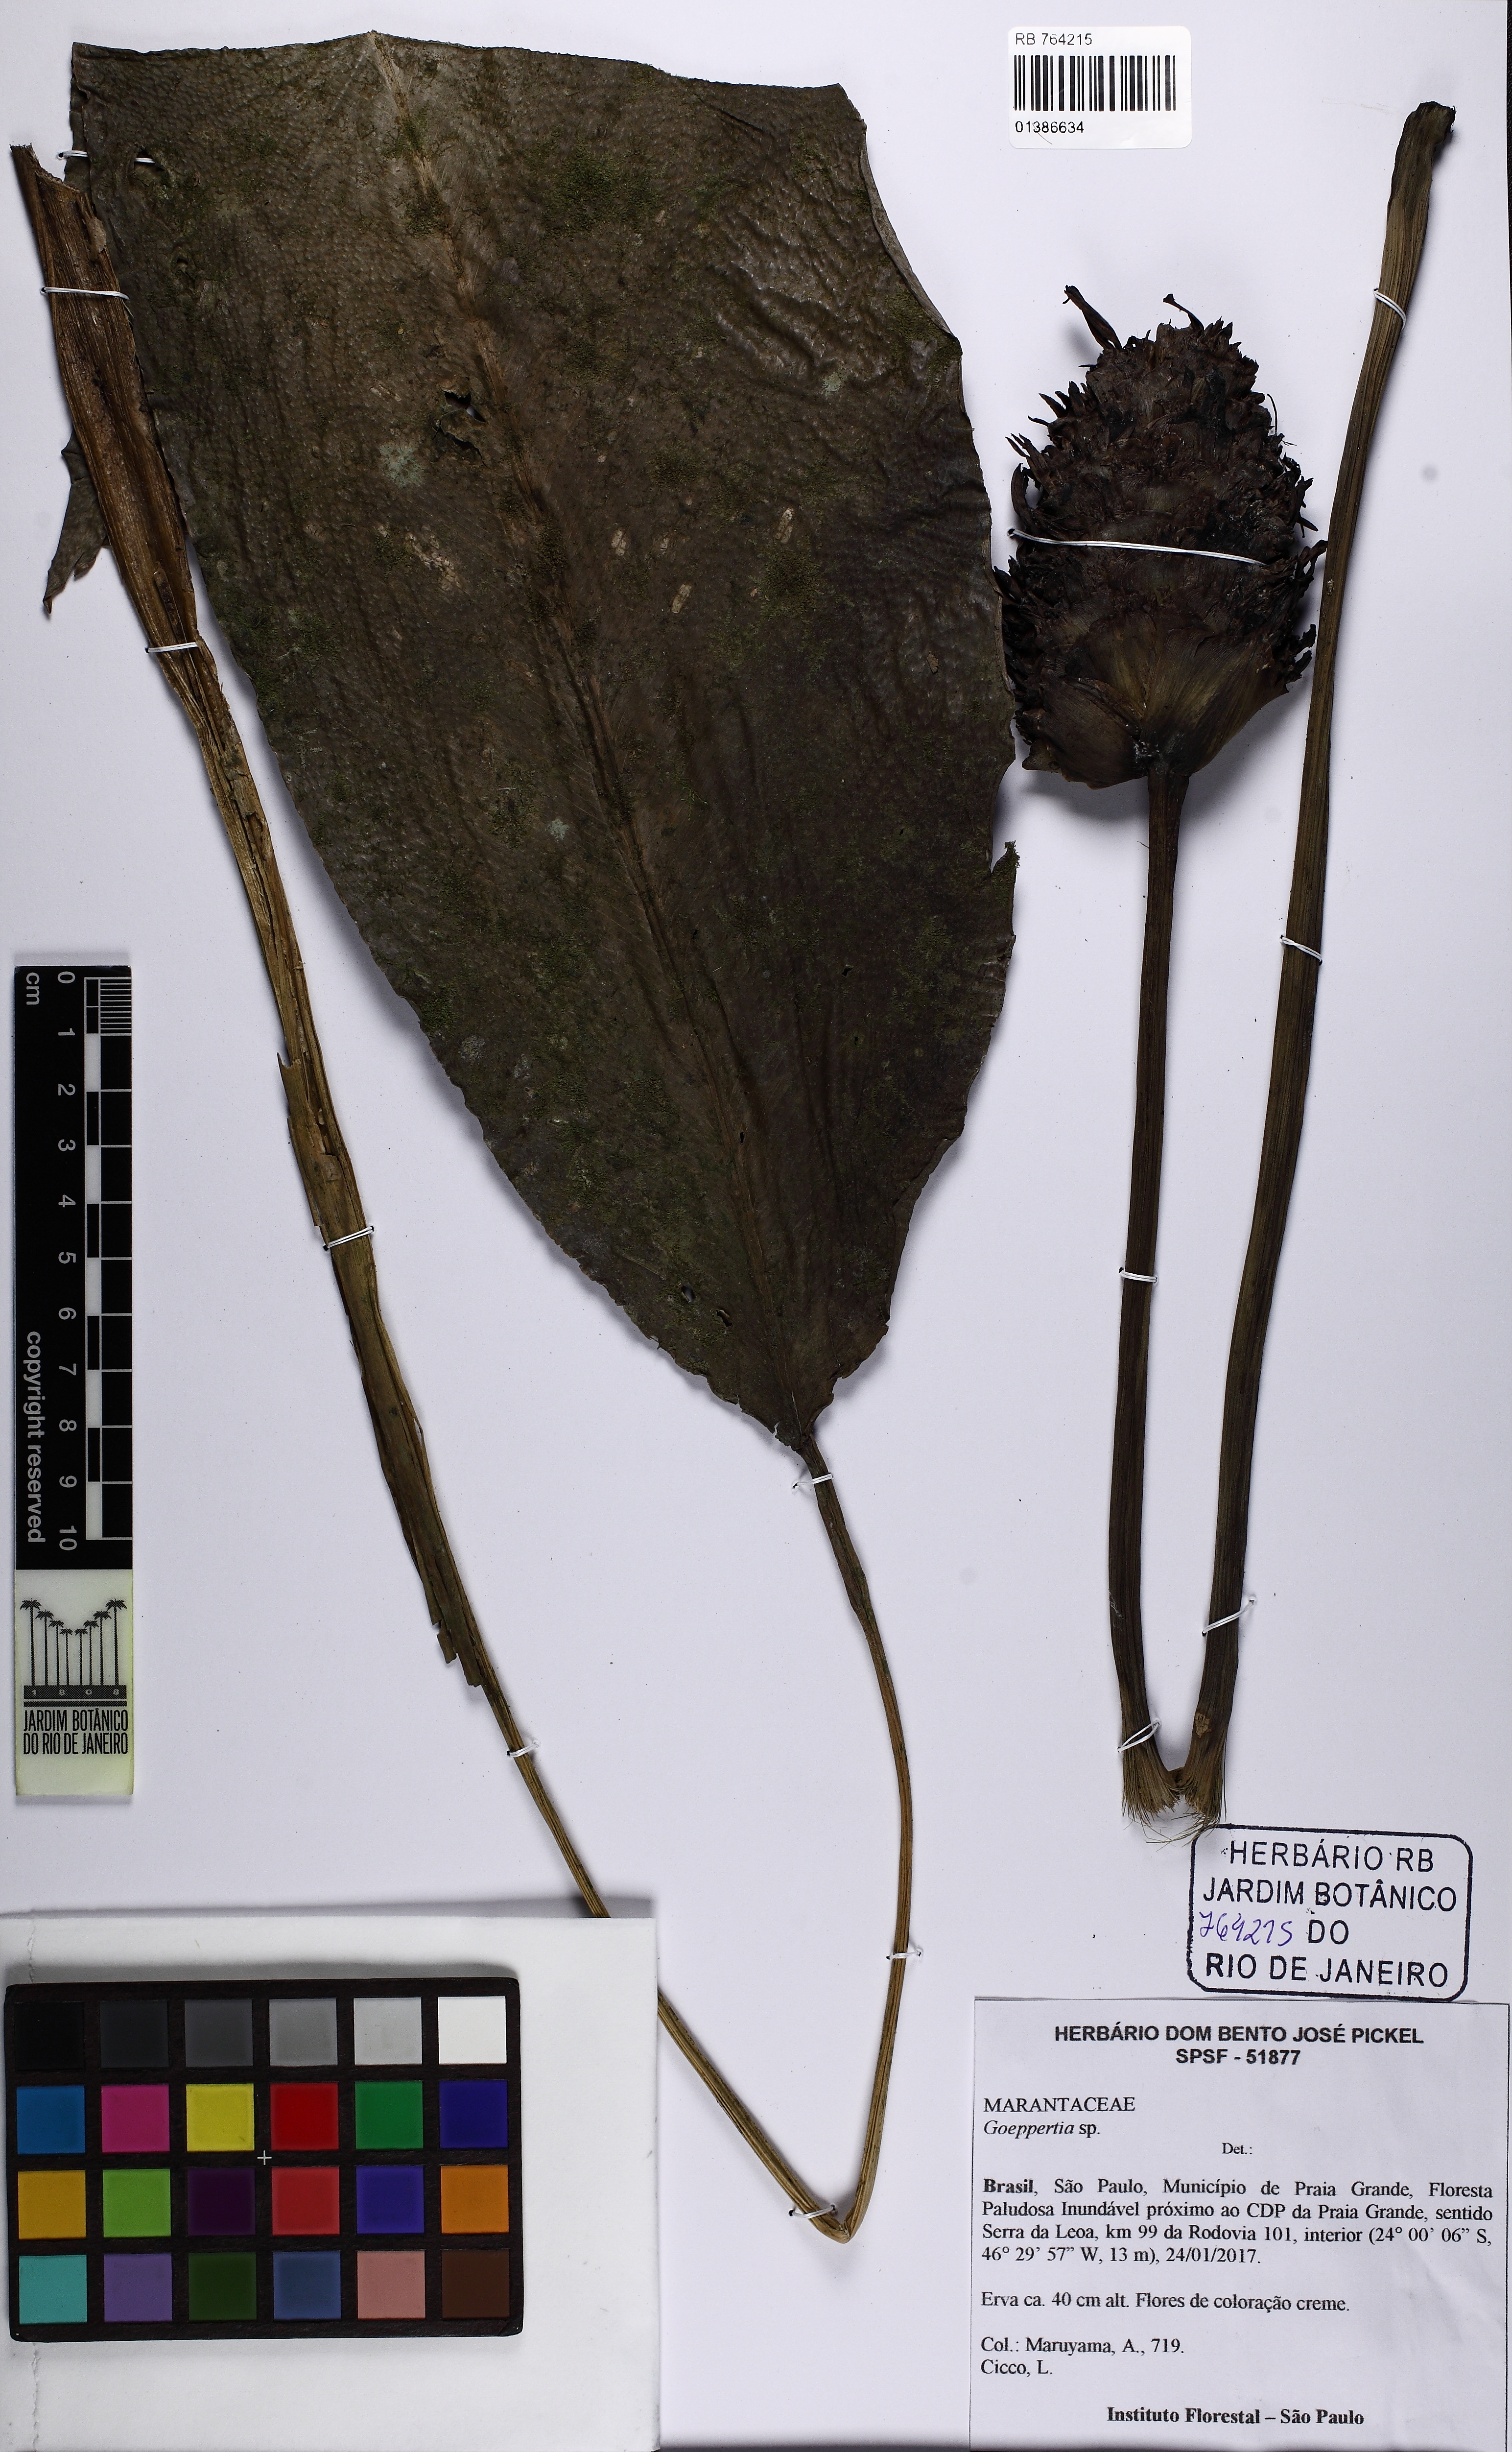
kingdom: Plantae
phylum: Tracheophyta
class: Liliopsida
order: Zingiberales
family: Marantaceae
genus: Goeppertia
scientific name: Goeppertia
